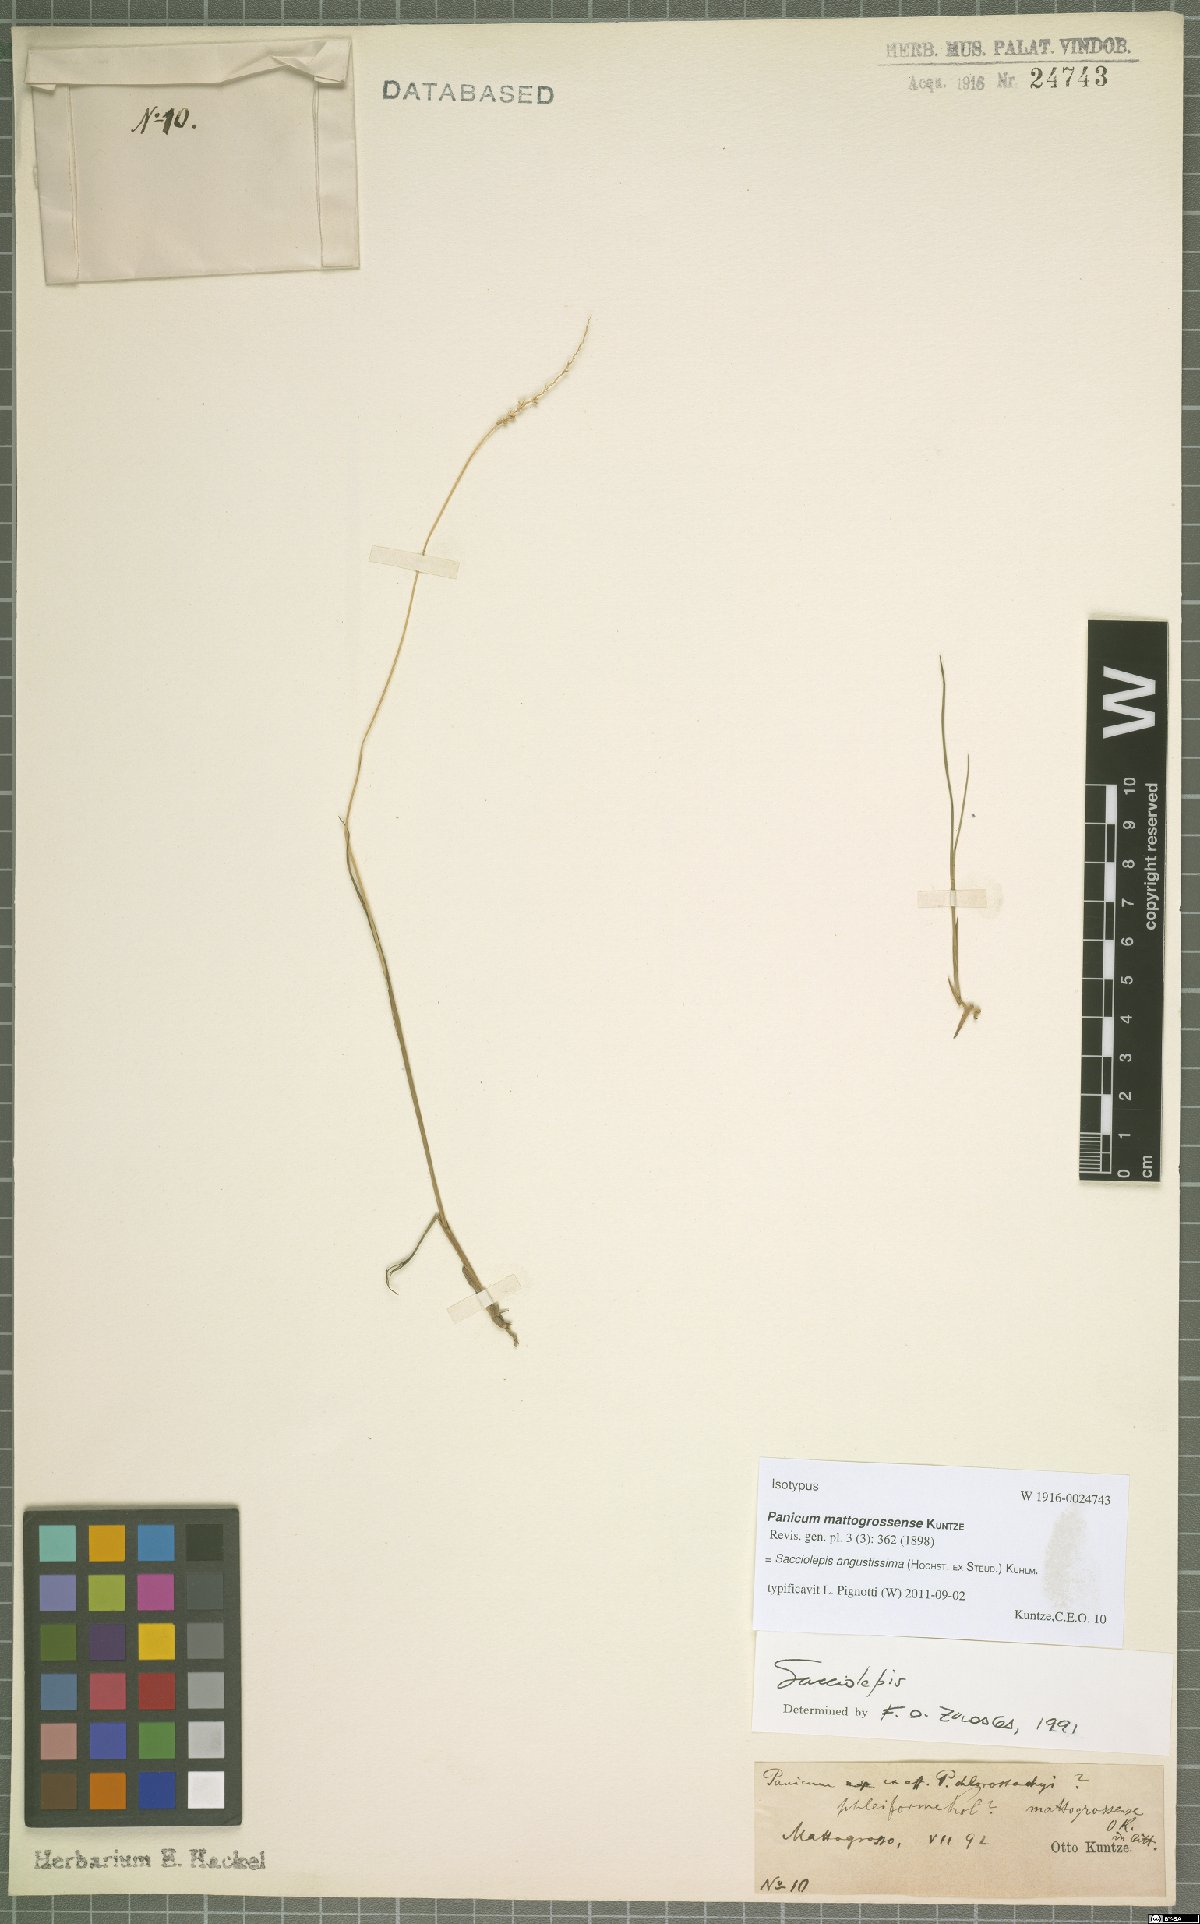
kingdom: Plantae
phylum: Tracheophyta
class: Liliopsida
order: Poales
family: Poaceae
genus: Sacciolepis
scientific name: Sacciolepis angustissima
